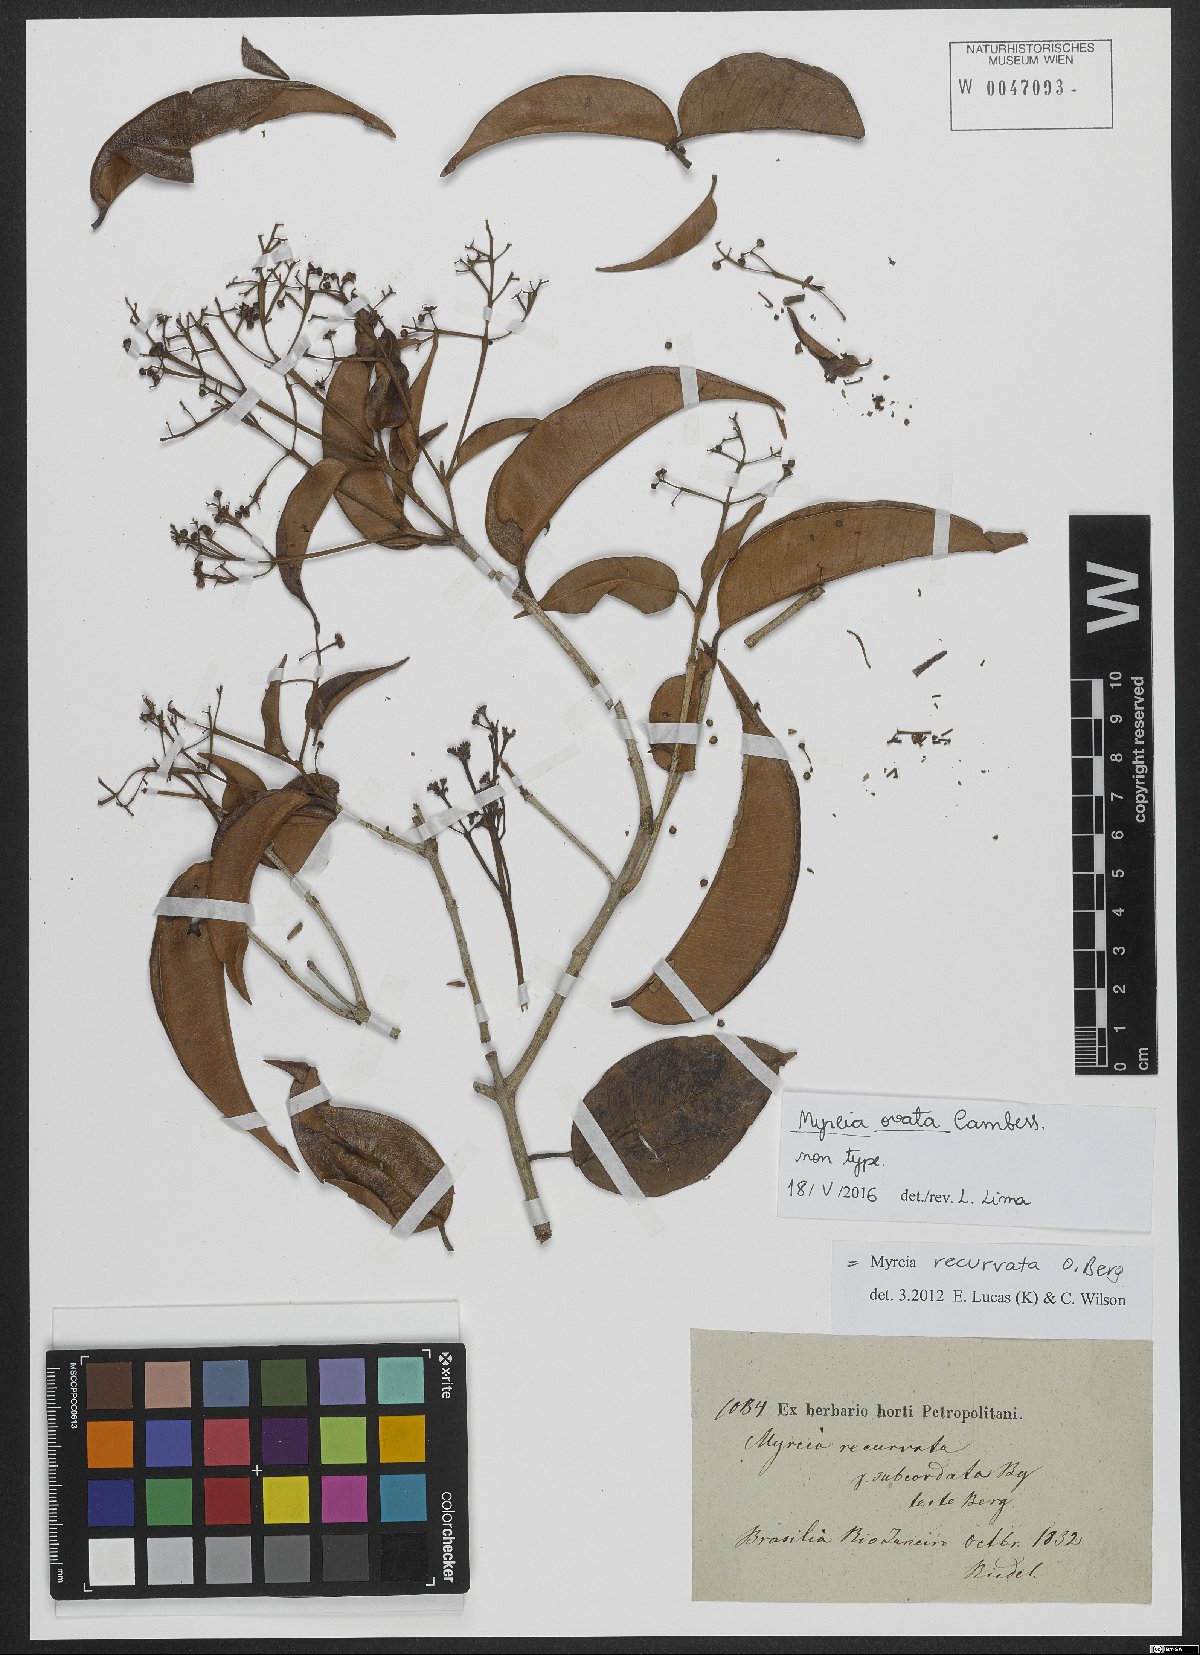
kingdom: Plantae
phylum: Tracheophyta
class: Magnoliopsida
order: Myrtales
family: Myrtaceae
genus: Myrcia
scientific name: Myrcia ovata
